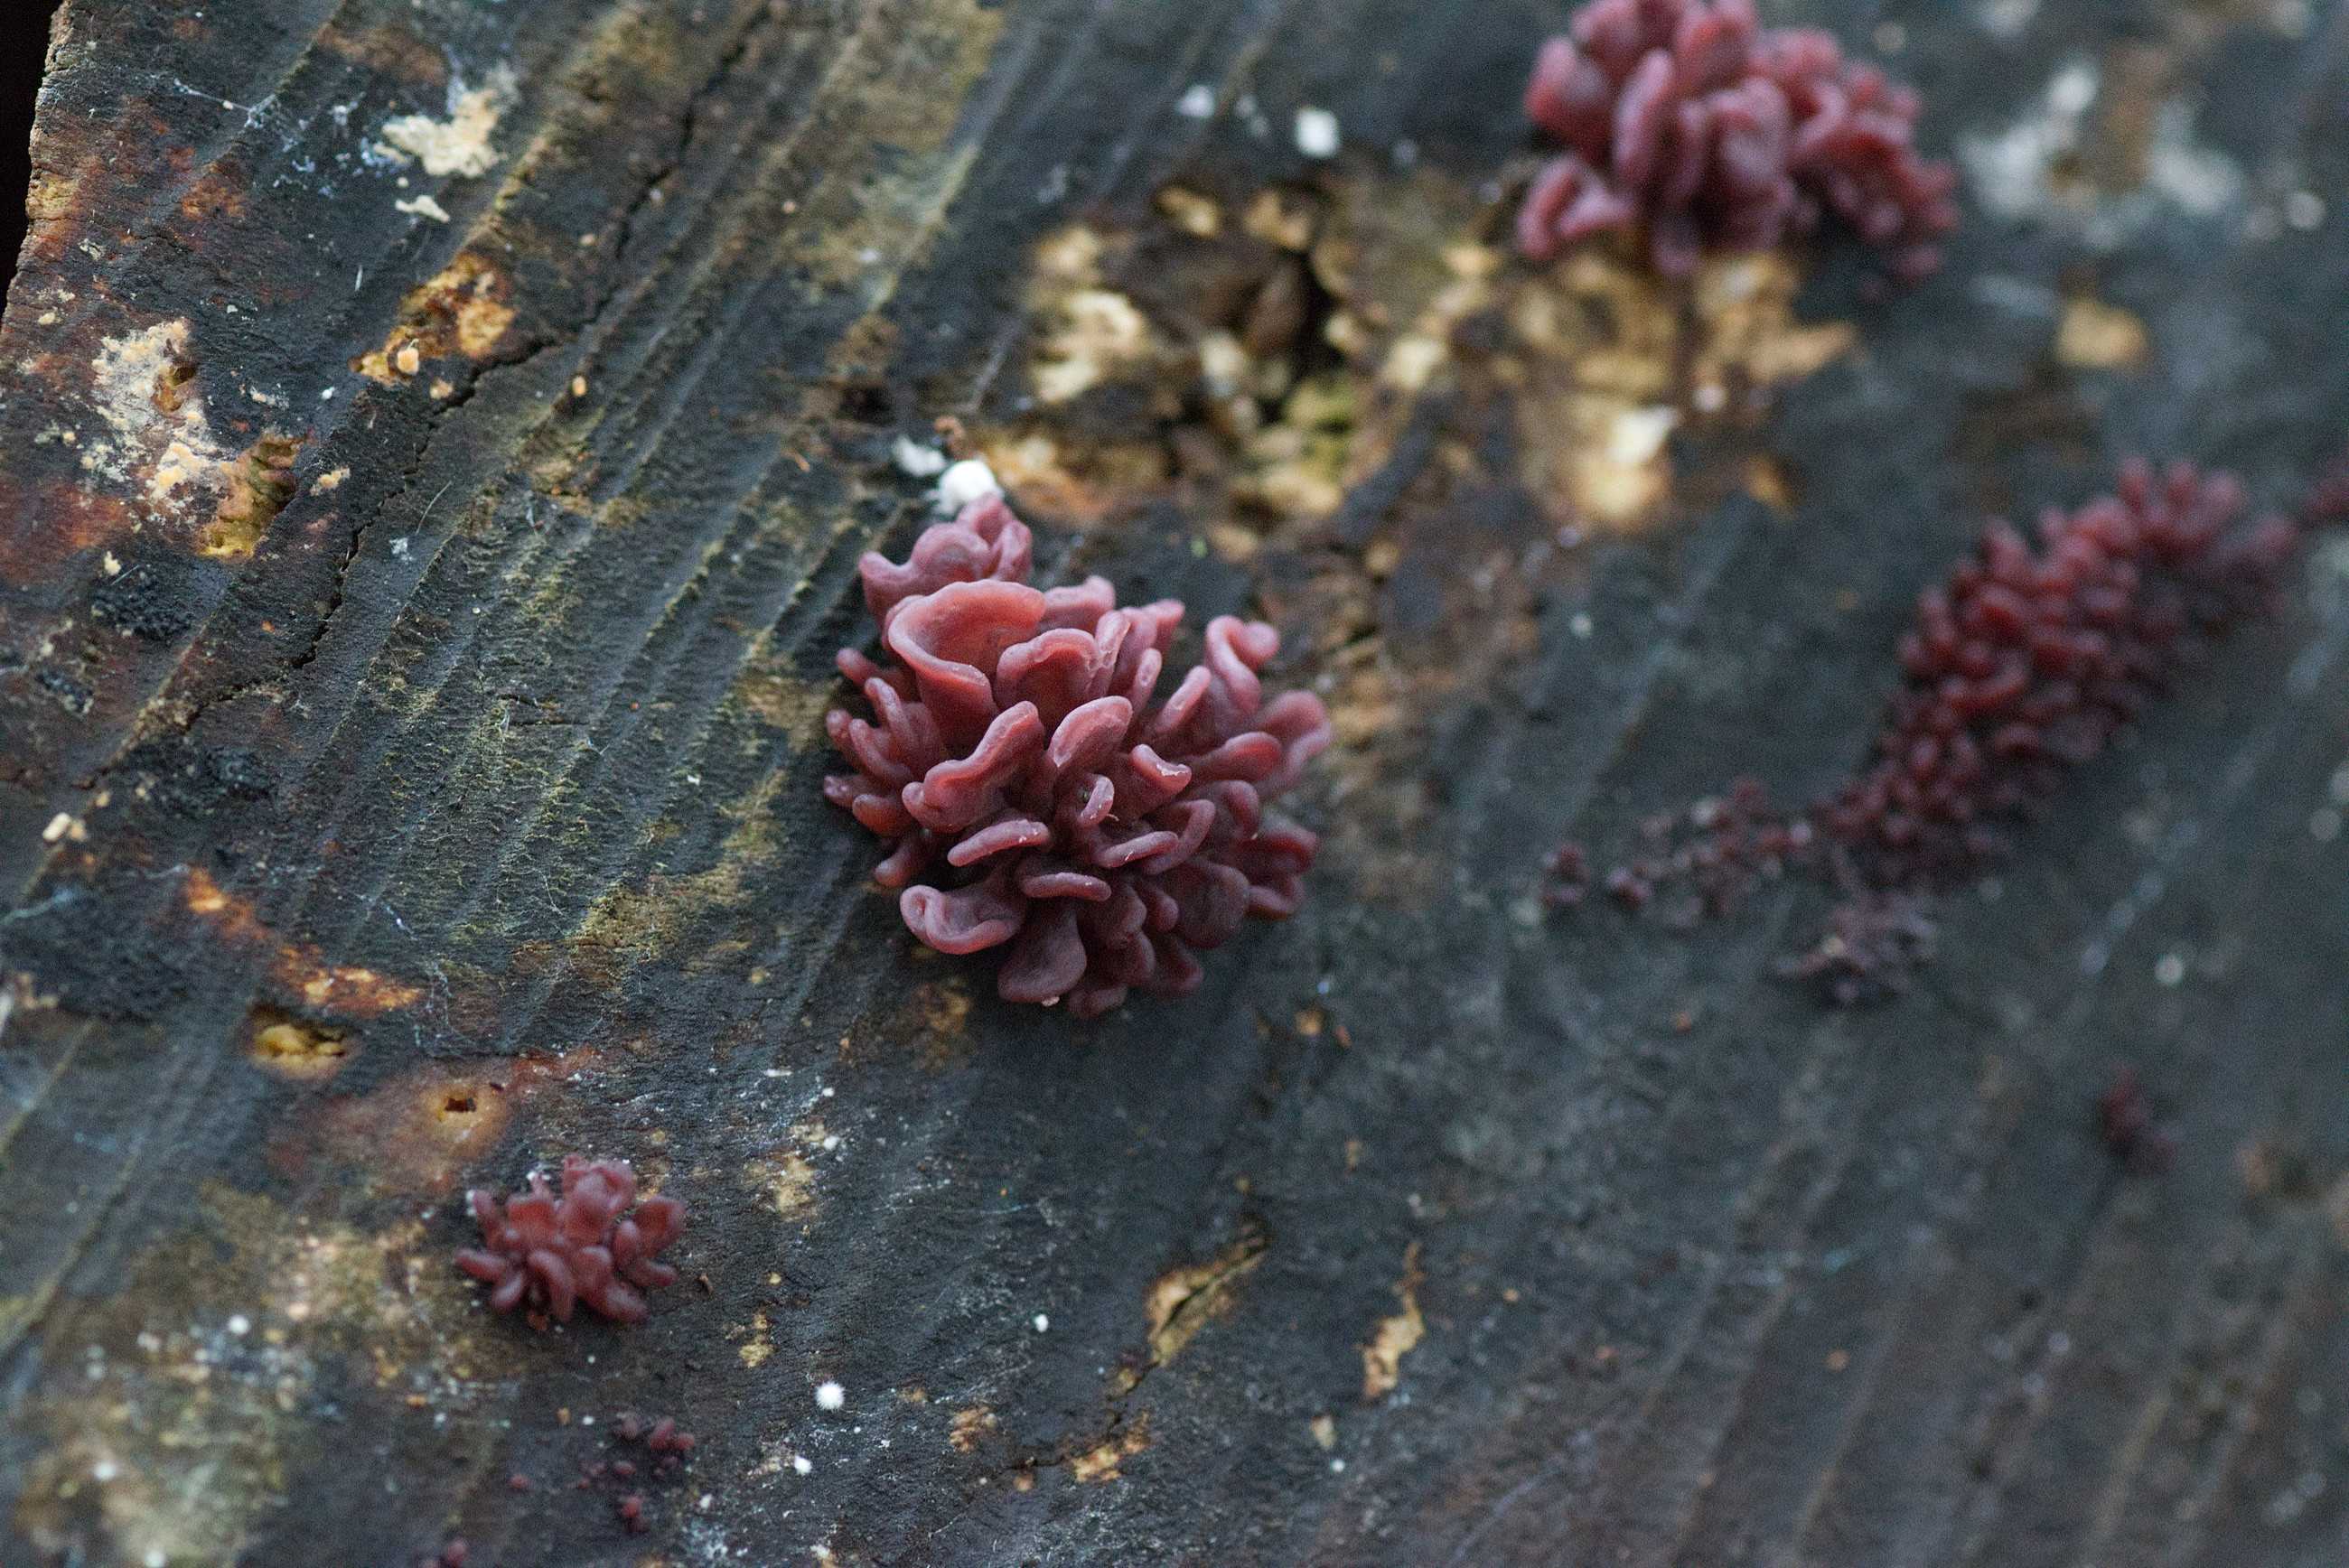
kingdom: Fungi
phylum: Ascomycota
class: Leotiomycetes
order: Helotiales
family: Gelatinodiscaceae
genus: Ascocoryne
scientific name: Ascocoryne sarcoides
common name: rødlilla sejskive
